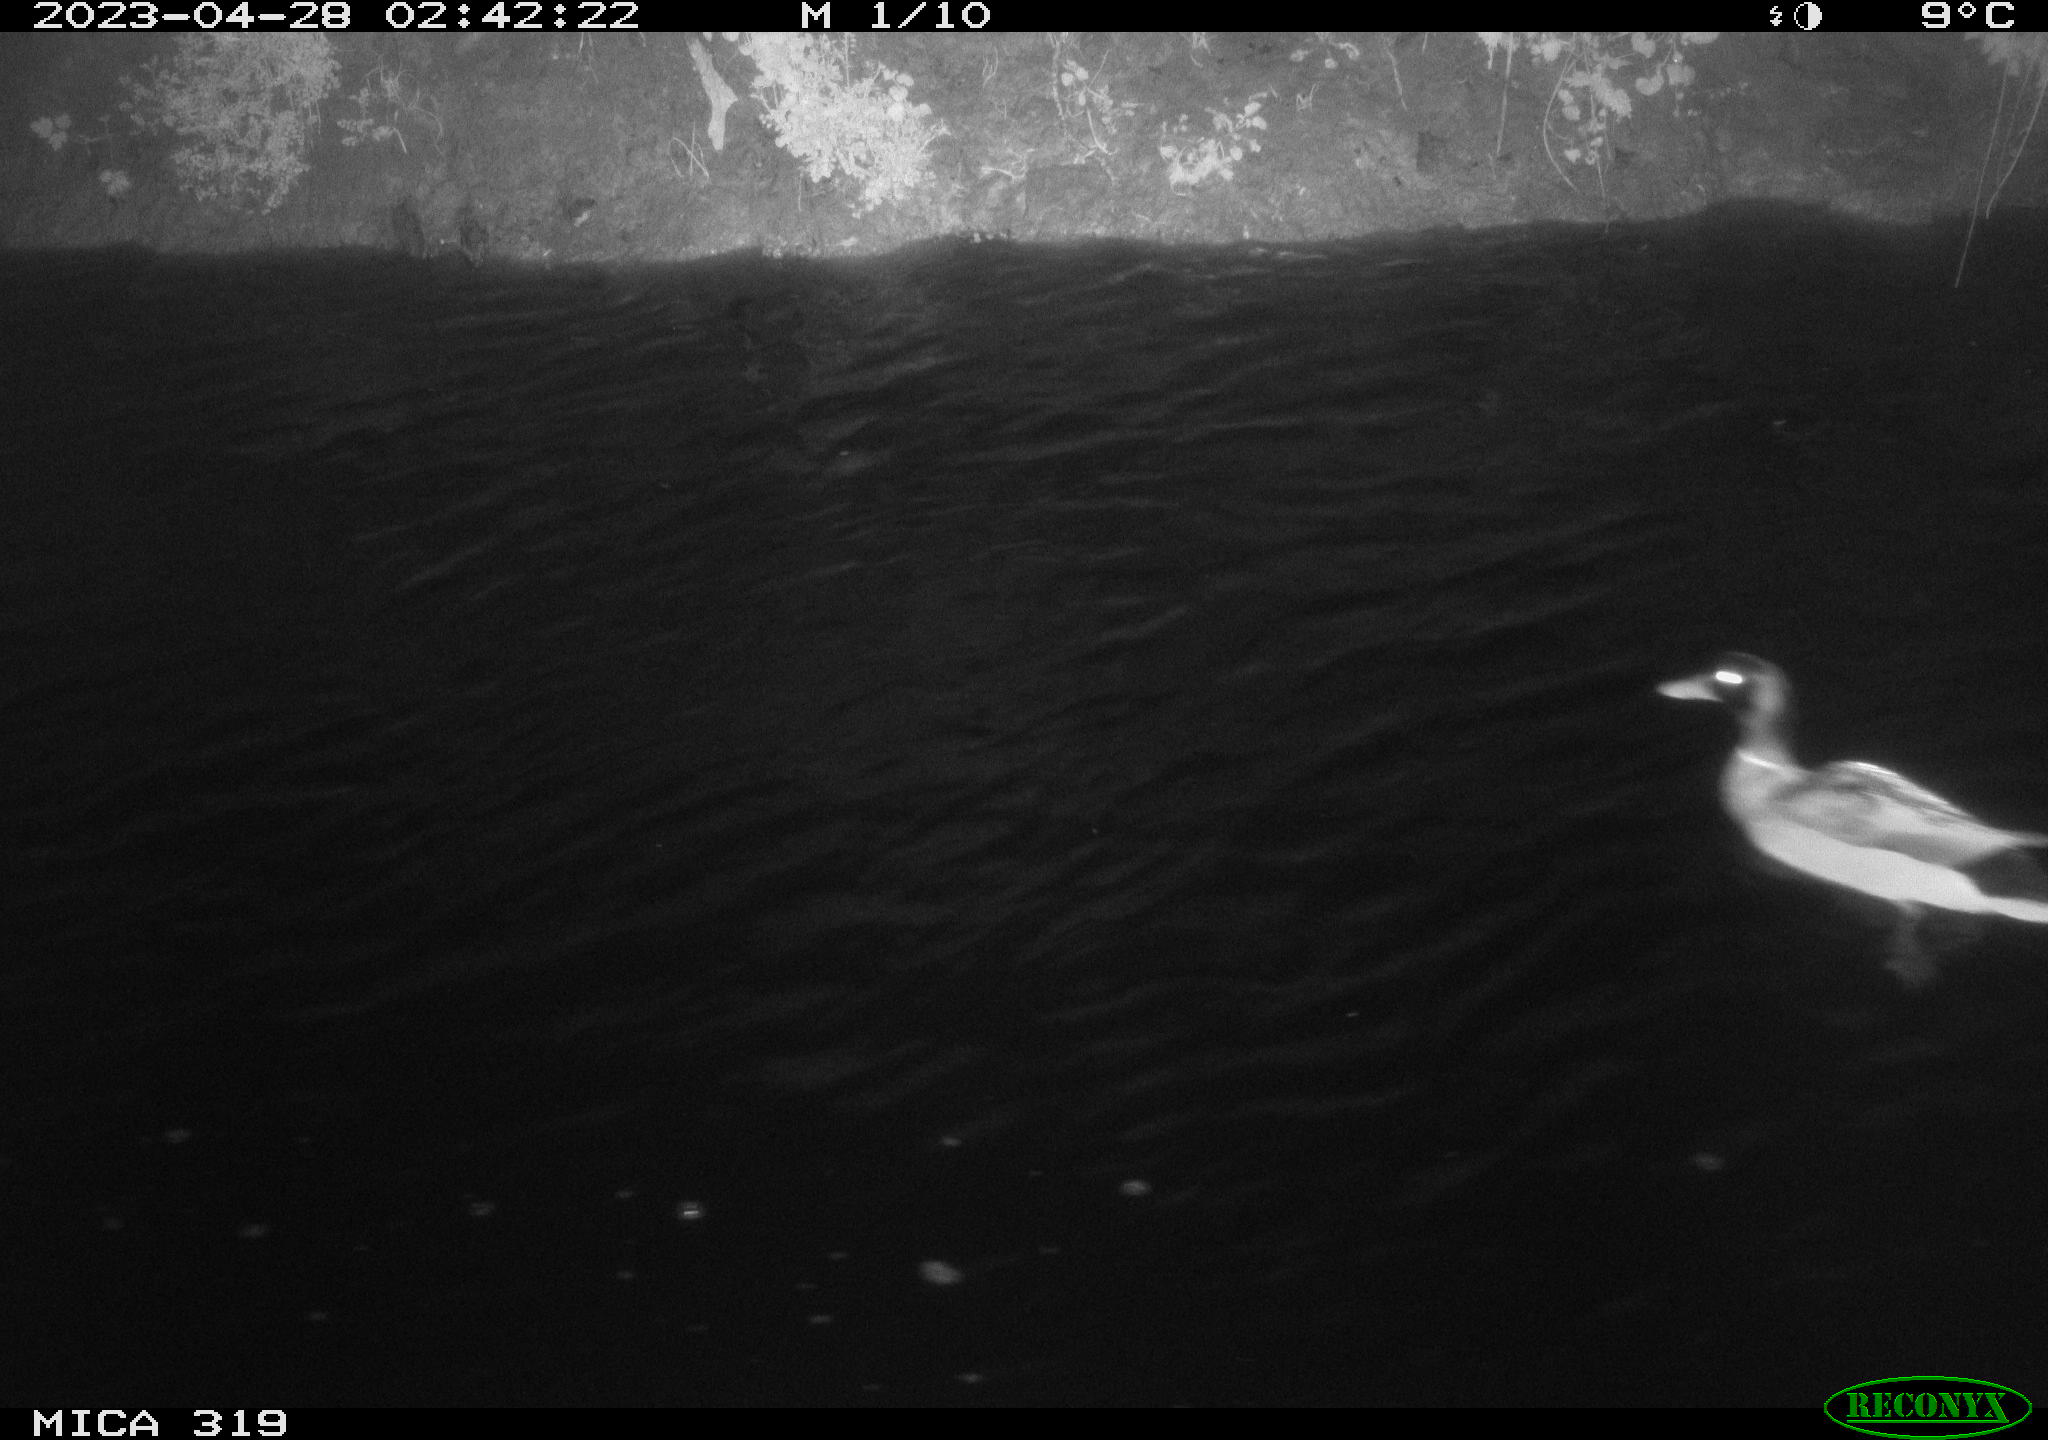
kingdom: Animalia
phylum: Chordata
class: Aves
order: Anseriformes
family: Anatidae
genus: Anas
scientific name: Anas
